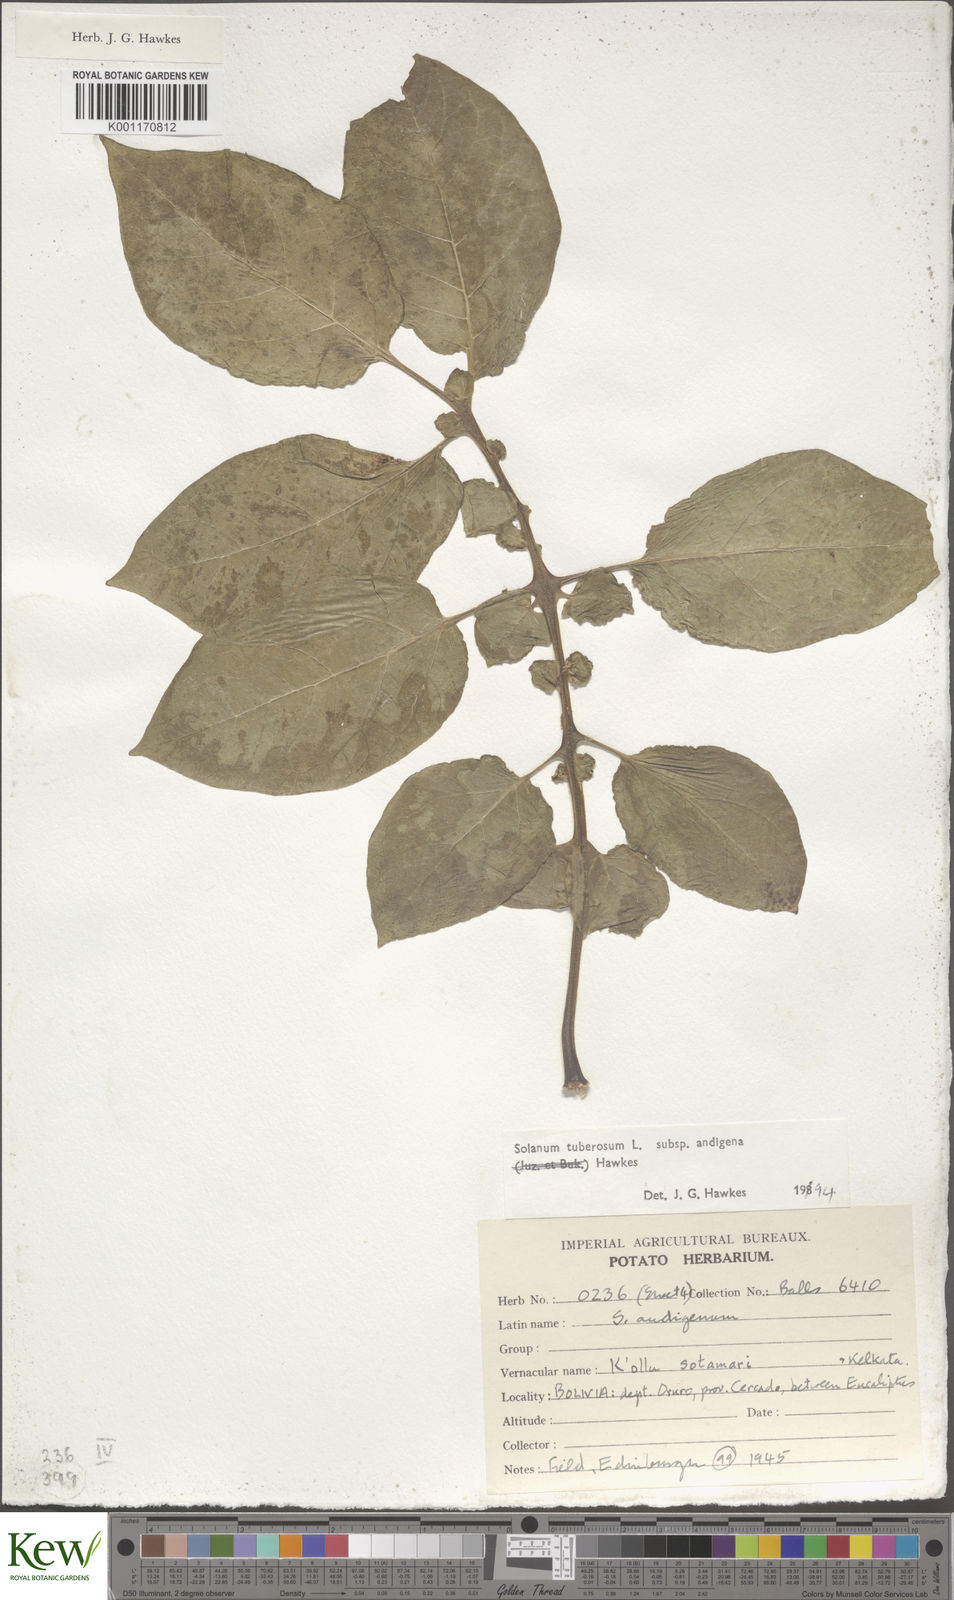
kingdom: Plantae
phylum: Tracheophyta
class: Magnoliopsida
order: Solanales
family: Solanaceae
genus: Solanum
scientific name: Solanum tuberosum
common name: Potato
